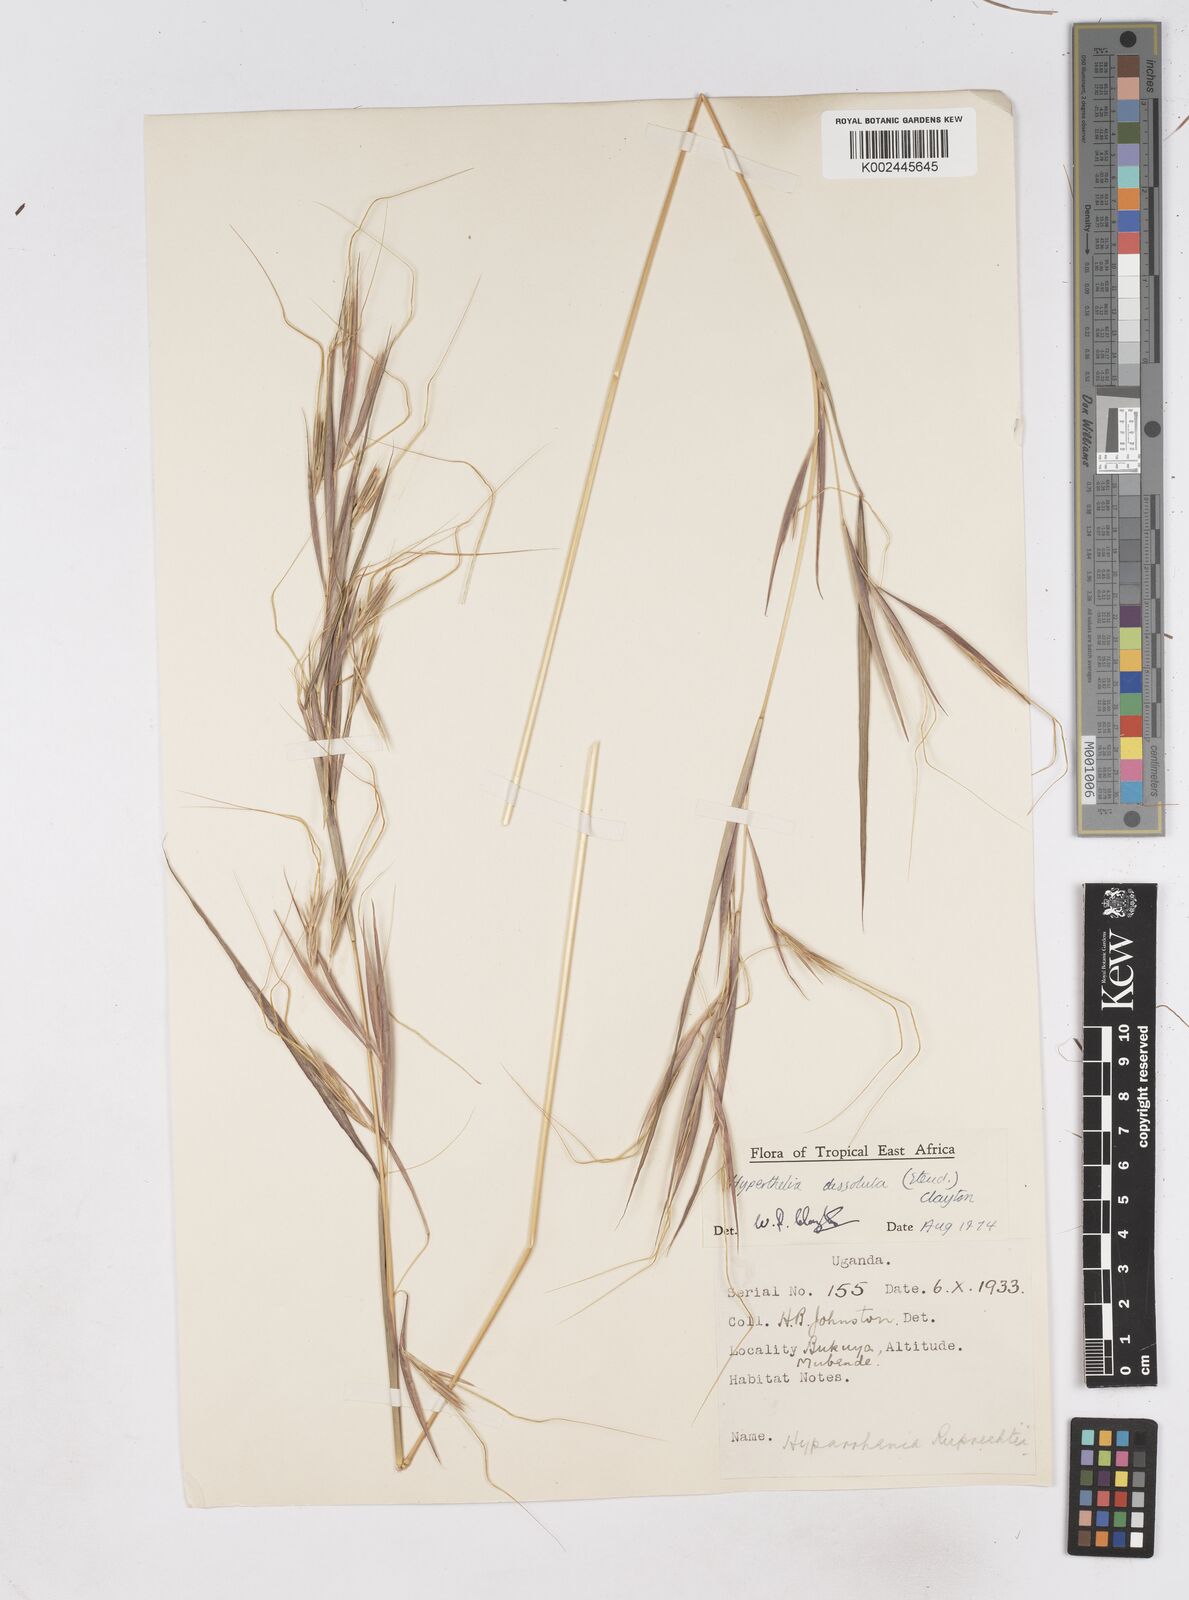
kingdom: Plantae
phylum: Tracheophyta
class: Liliopsida
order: Poales
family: Poaceae
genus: Hyperthelia
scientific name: Hyperthelia dissoluta
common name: Yellow thatching grass
